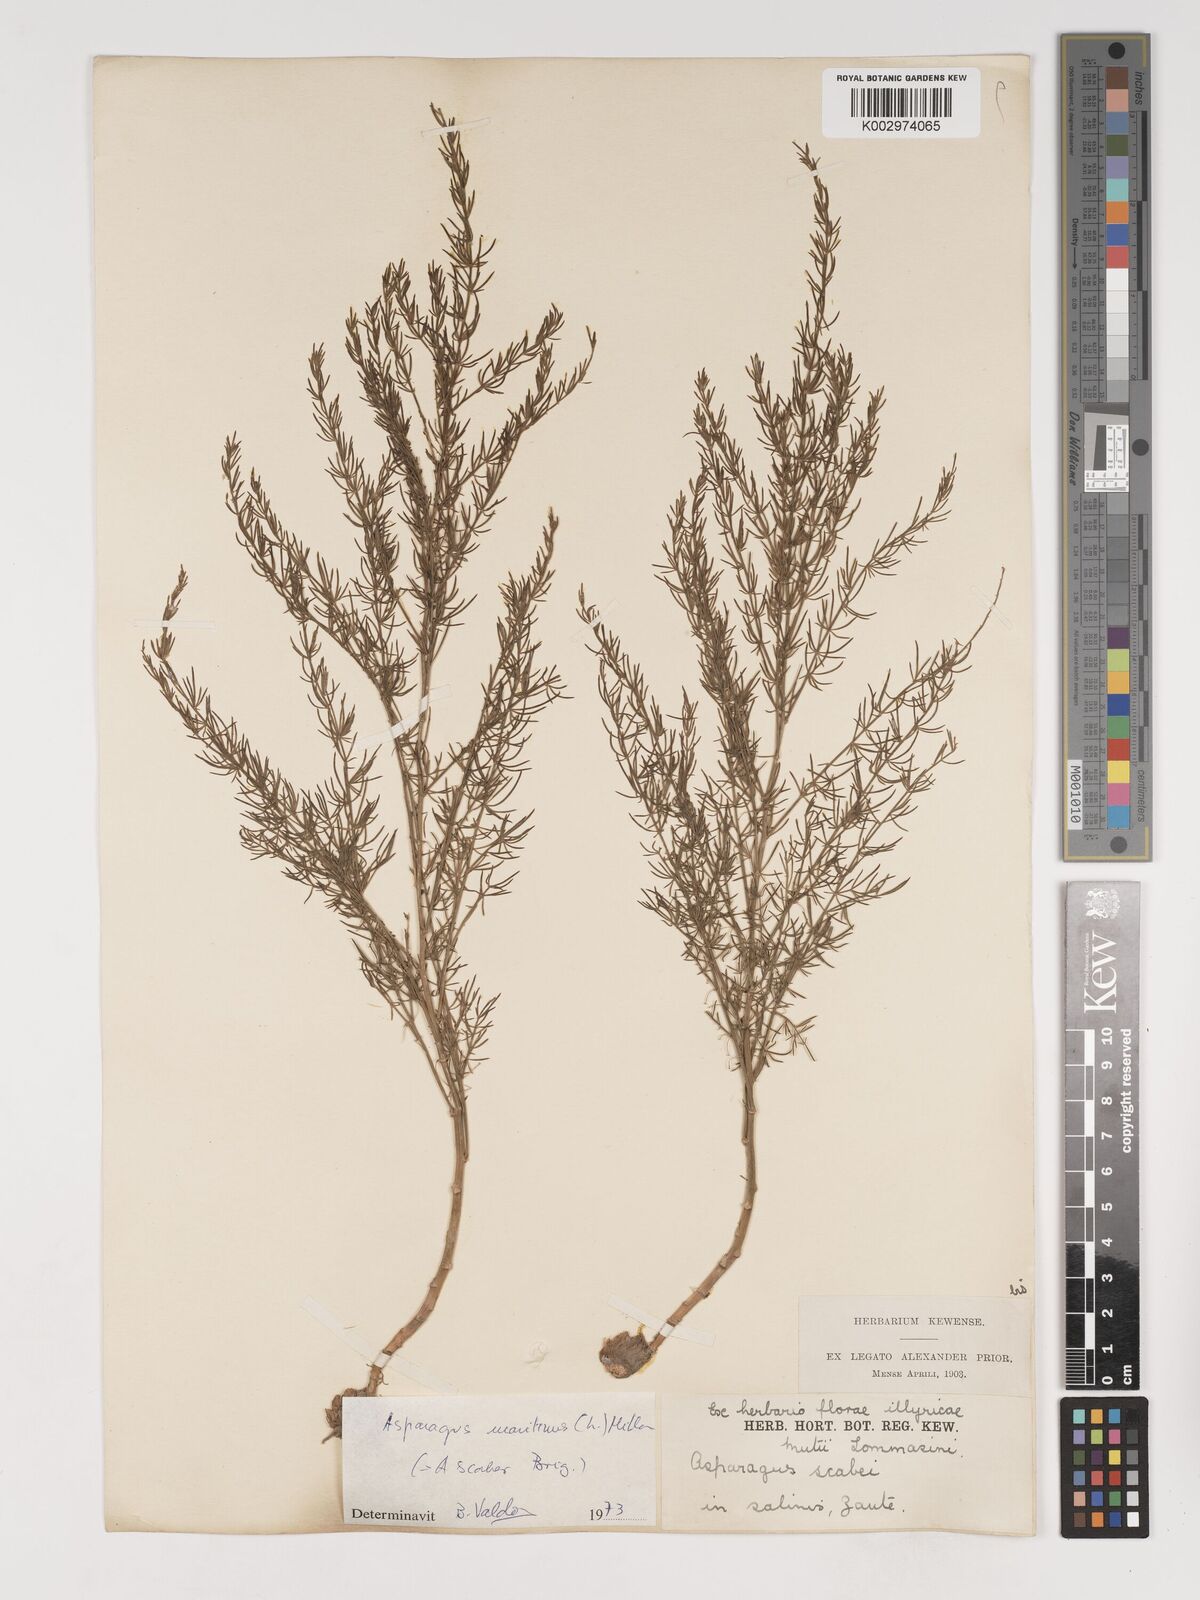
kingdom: Plantae
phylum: Tracheophyta
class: Liliopsida
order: Asparagales
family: Asparagaceae
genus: Asparagus
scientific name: Asparagus officinalis
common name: Garden asparagus
